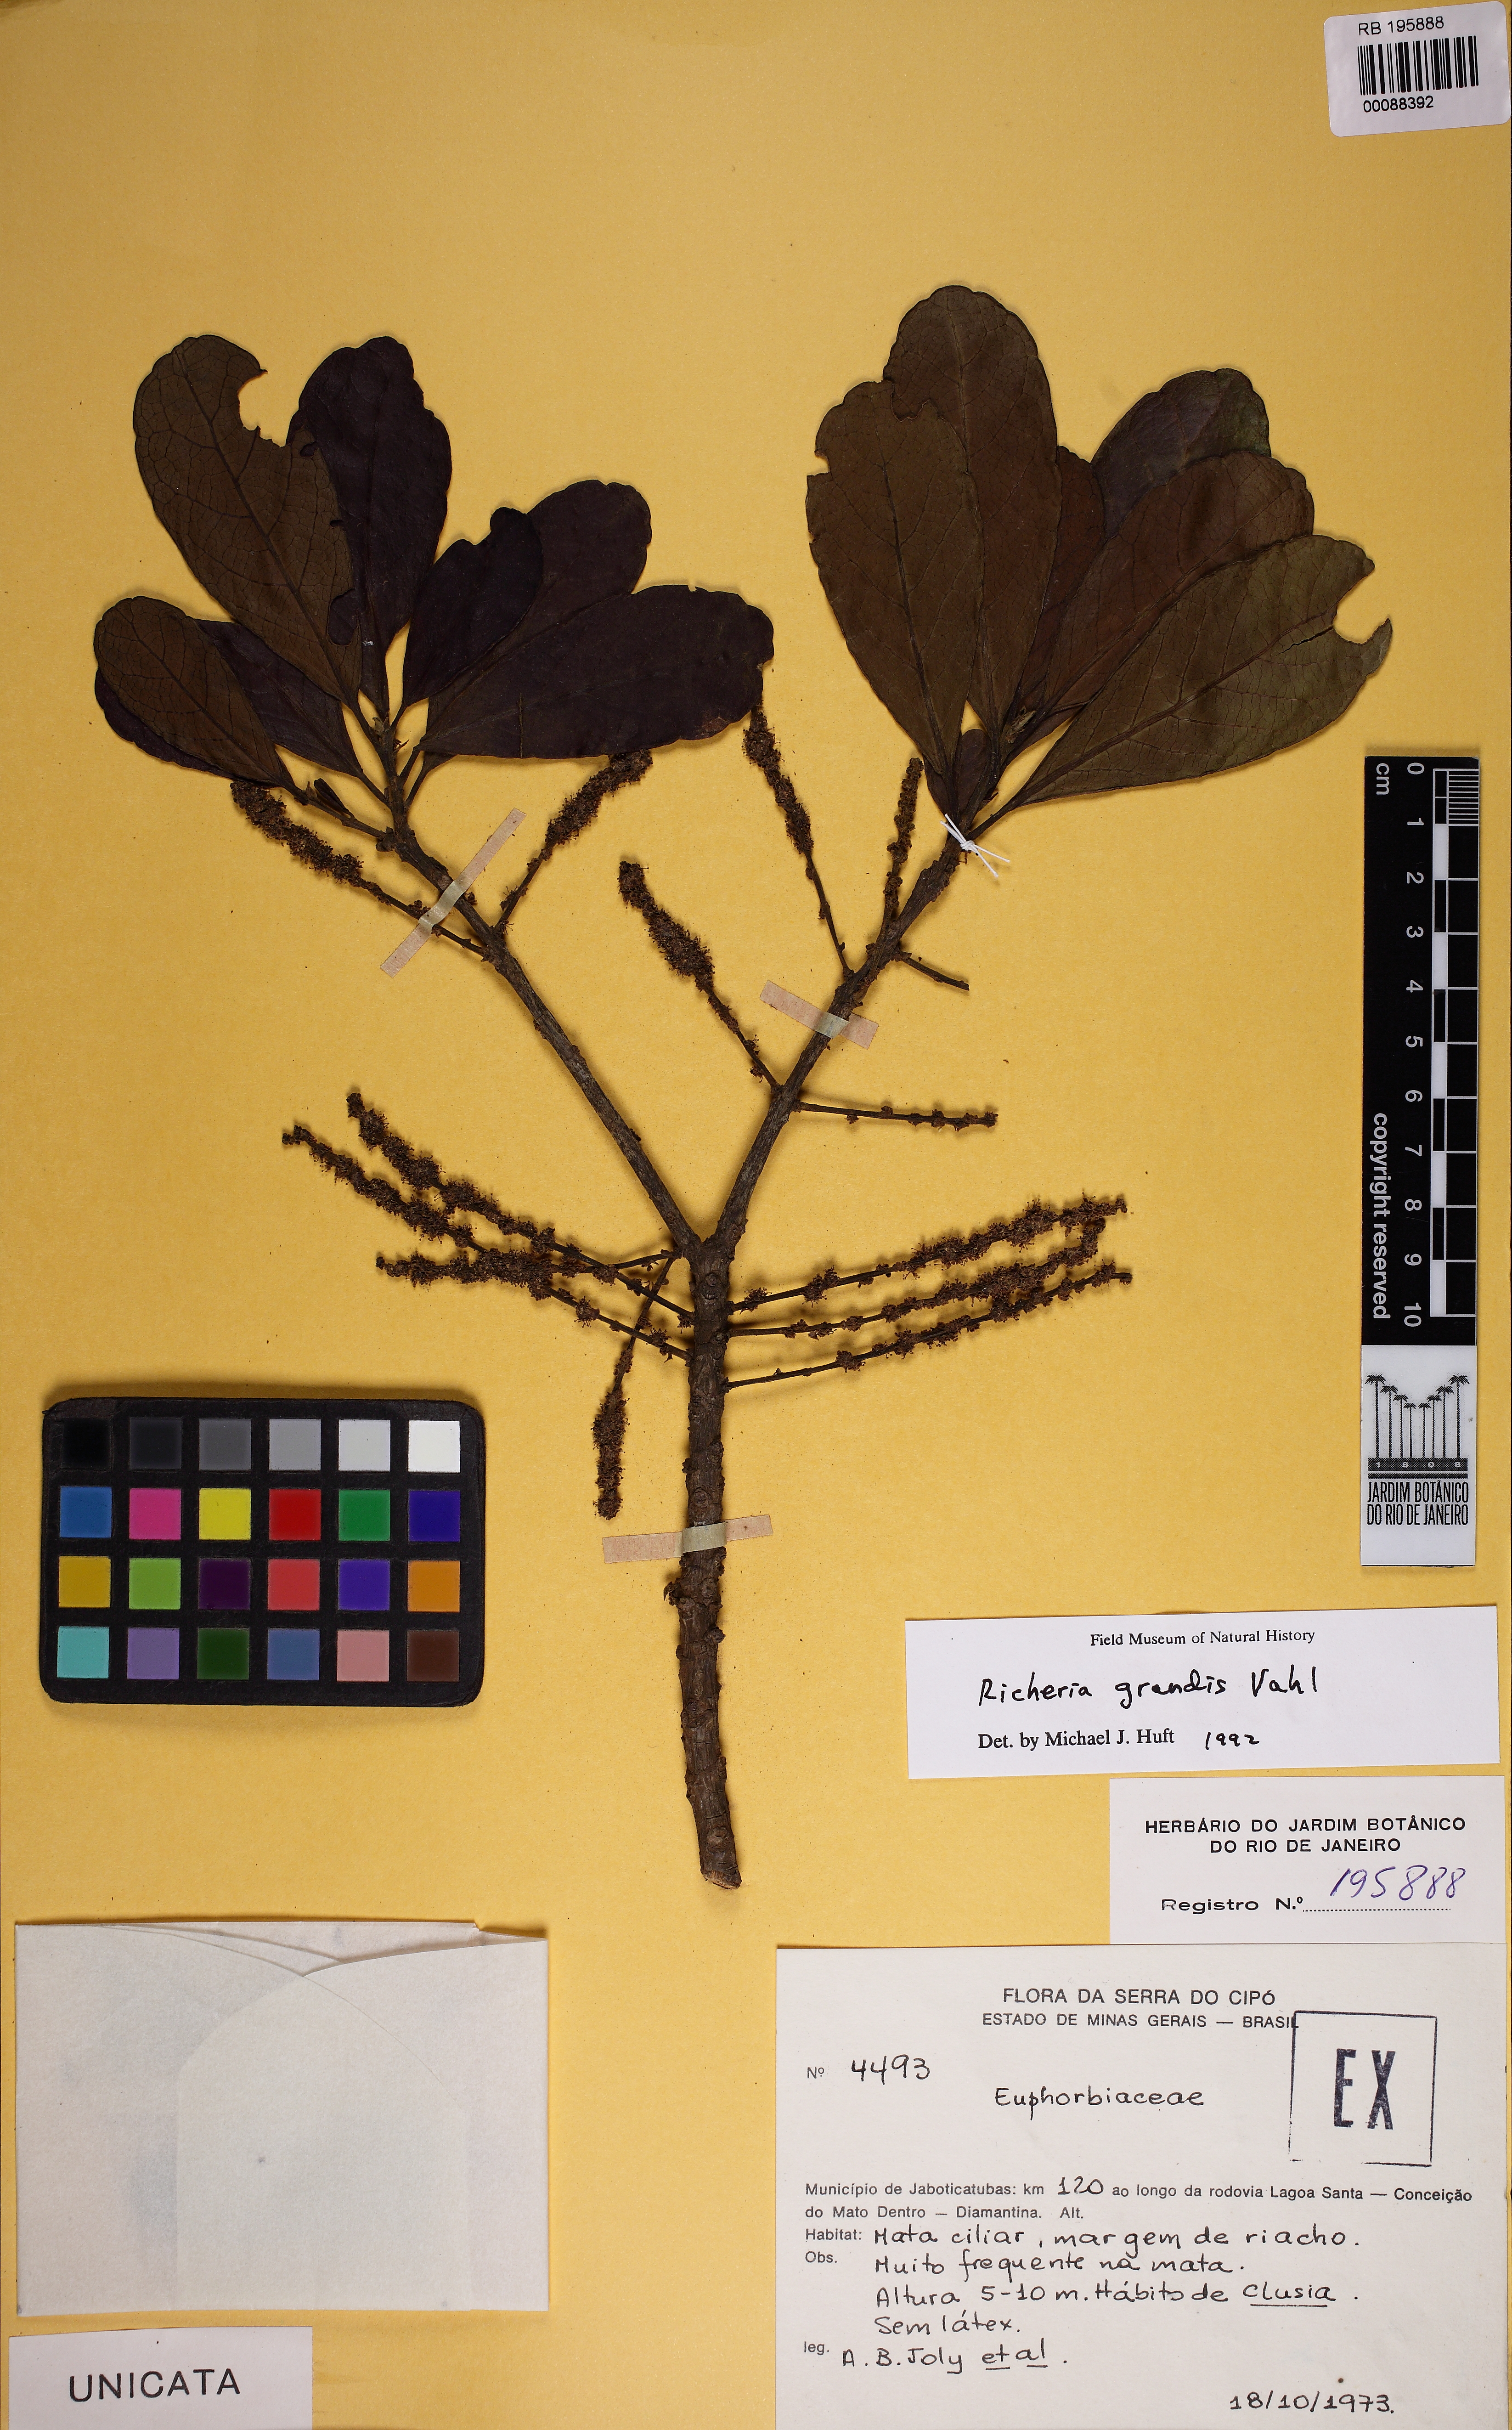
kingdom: Plantae
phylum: Tracheophyta
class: Magnoliopsida
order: Malpighiales
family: Phyllanthaceae
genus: Richeria
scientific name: Richeria grandis
